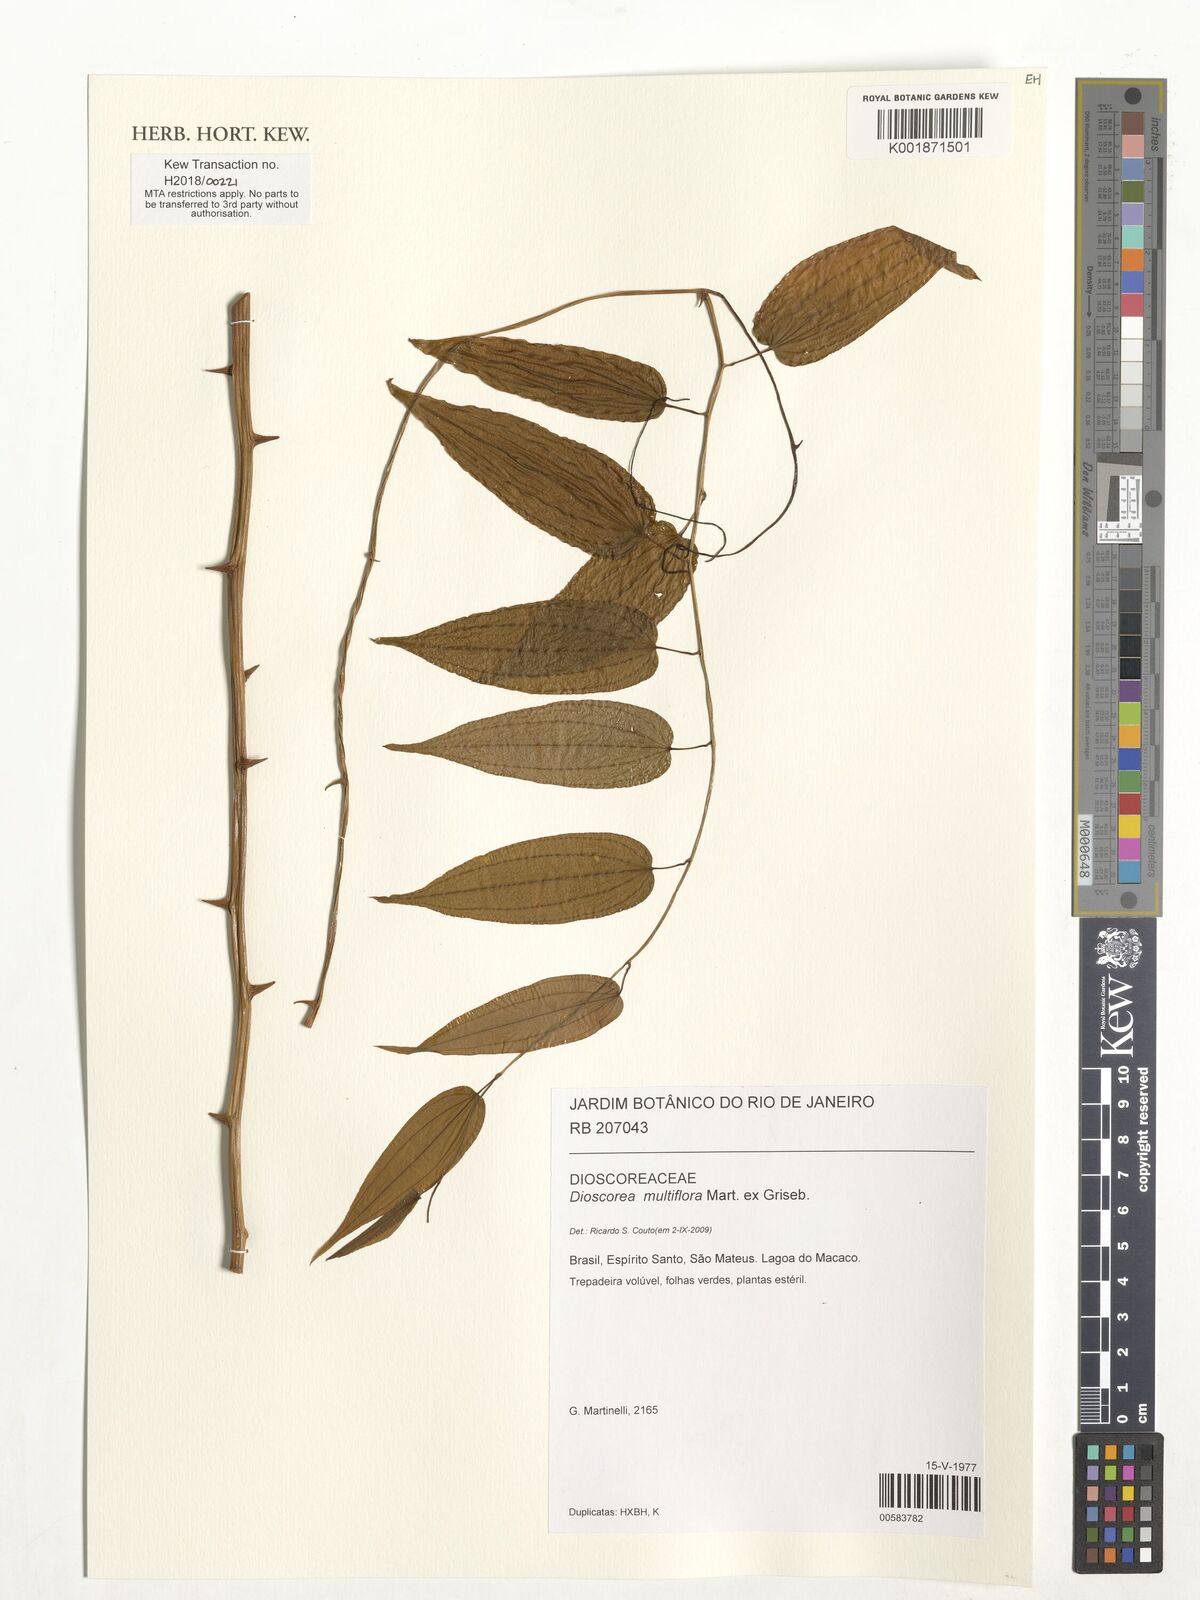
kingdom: Plantae
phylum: Tracheophyta
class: Liliopsida
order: Dioscoreales
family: Dioscoreaceae
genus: Dioscorea
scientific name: Dioscorea multiflora
